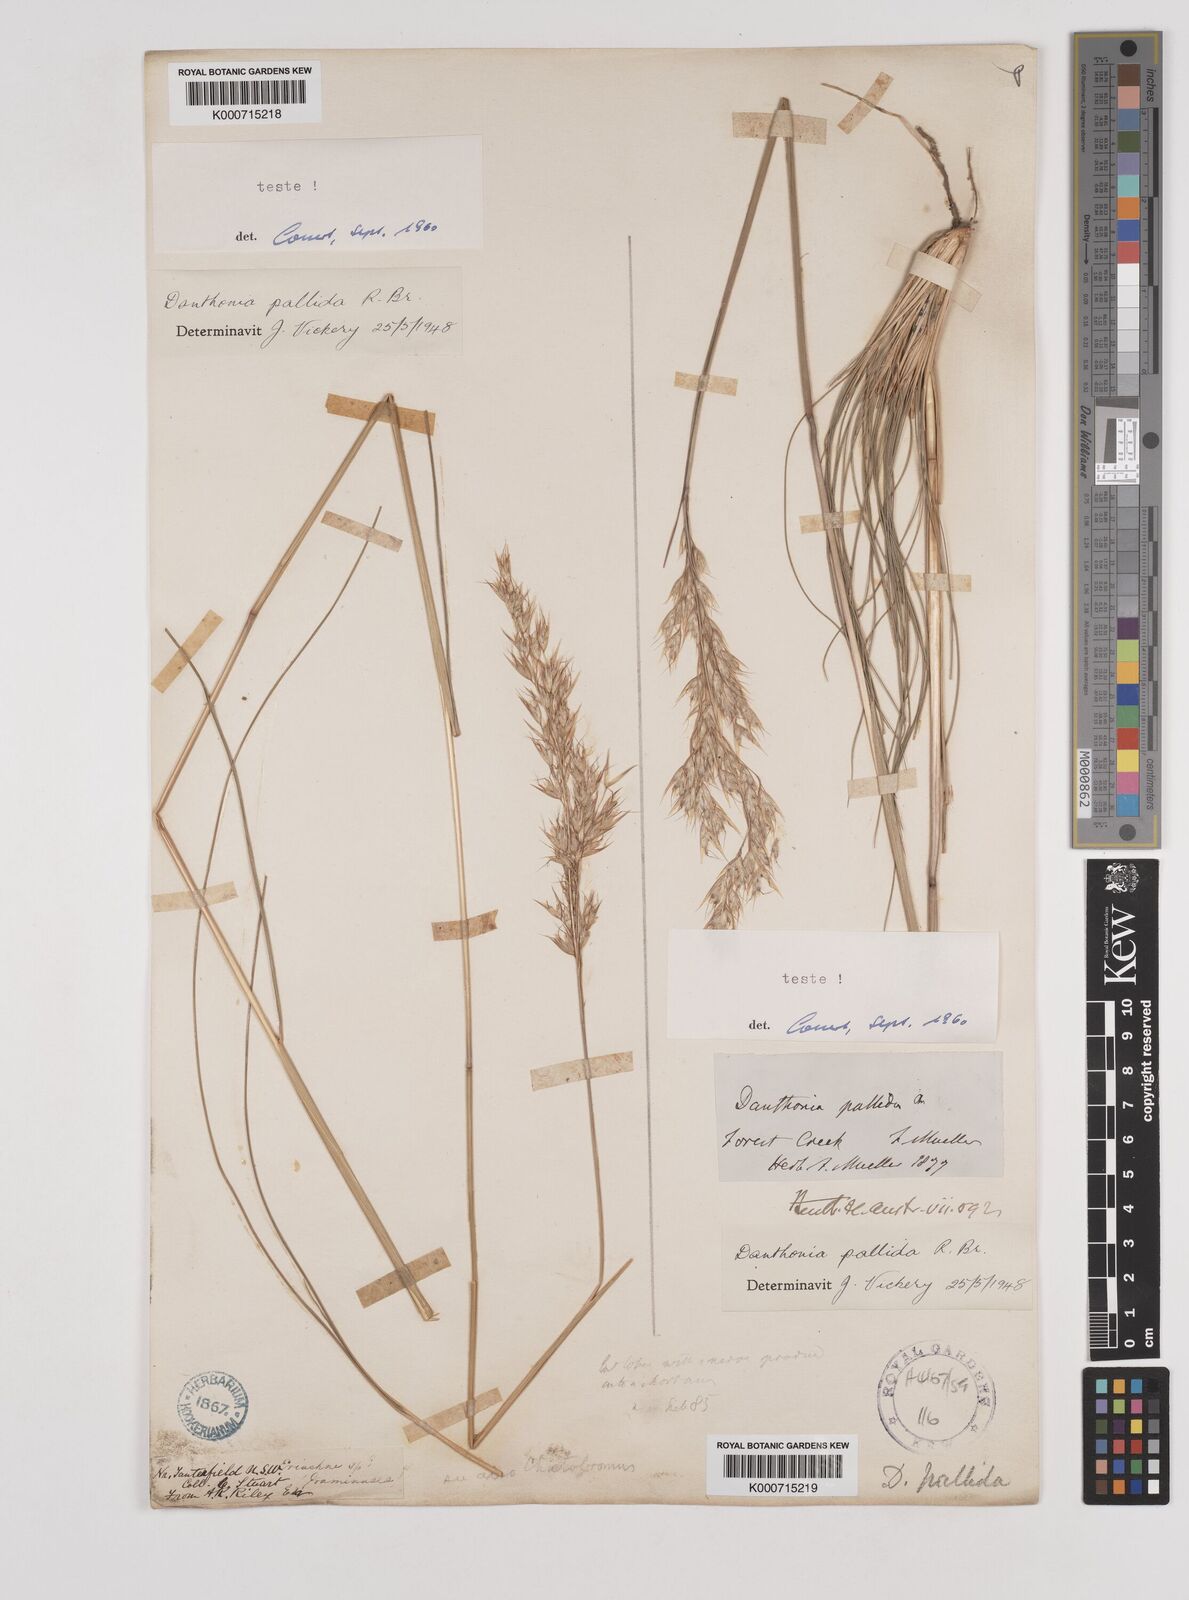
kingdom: Plantae
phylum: Tracheophyta
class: Liliopsida
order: Poales
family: Poaceae
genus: Rytidosperma
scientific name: Rytidosperma
